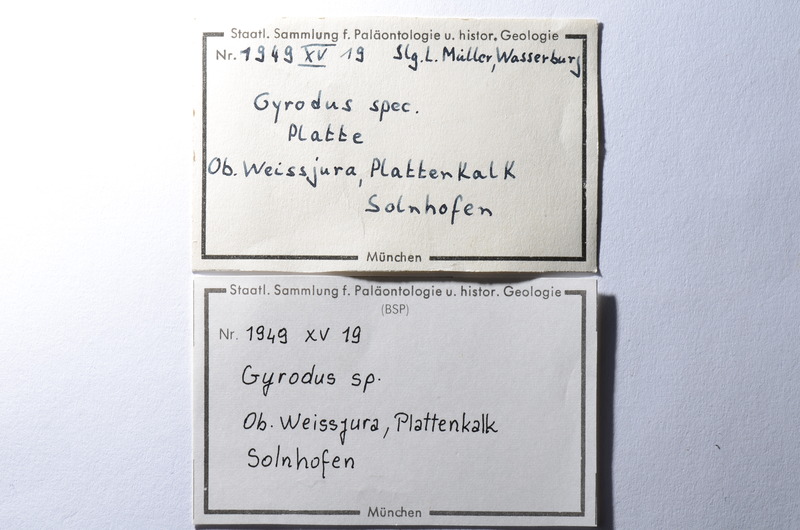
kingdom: Animalia
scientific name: Animalia
